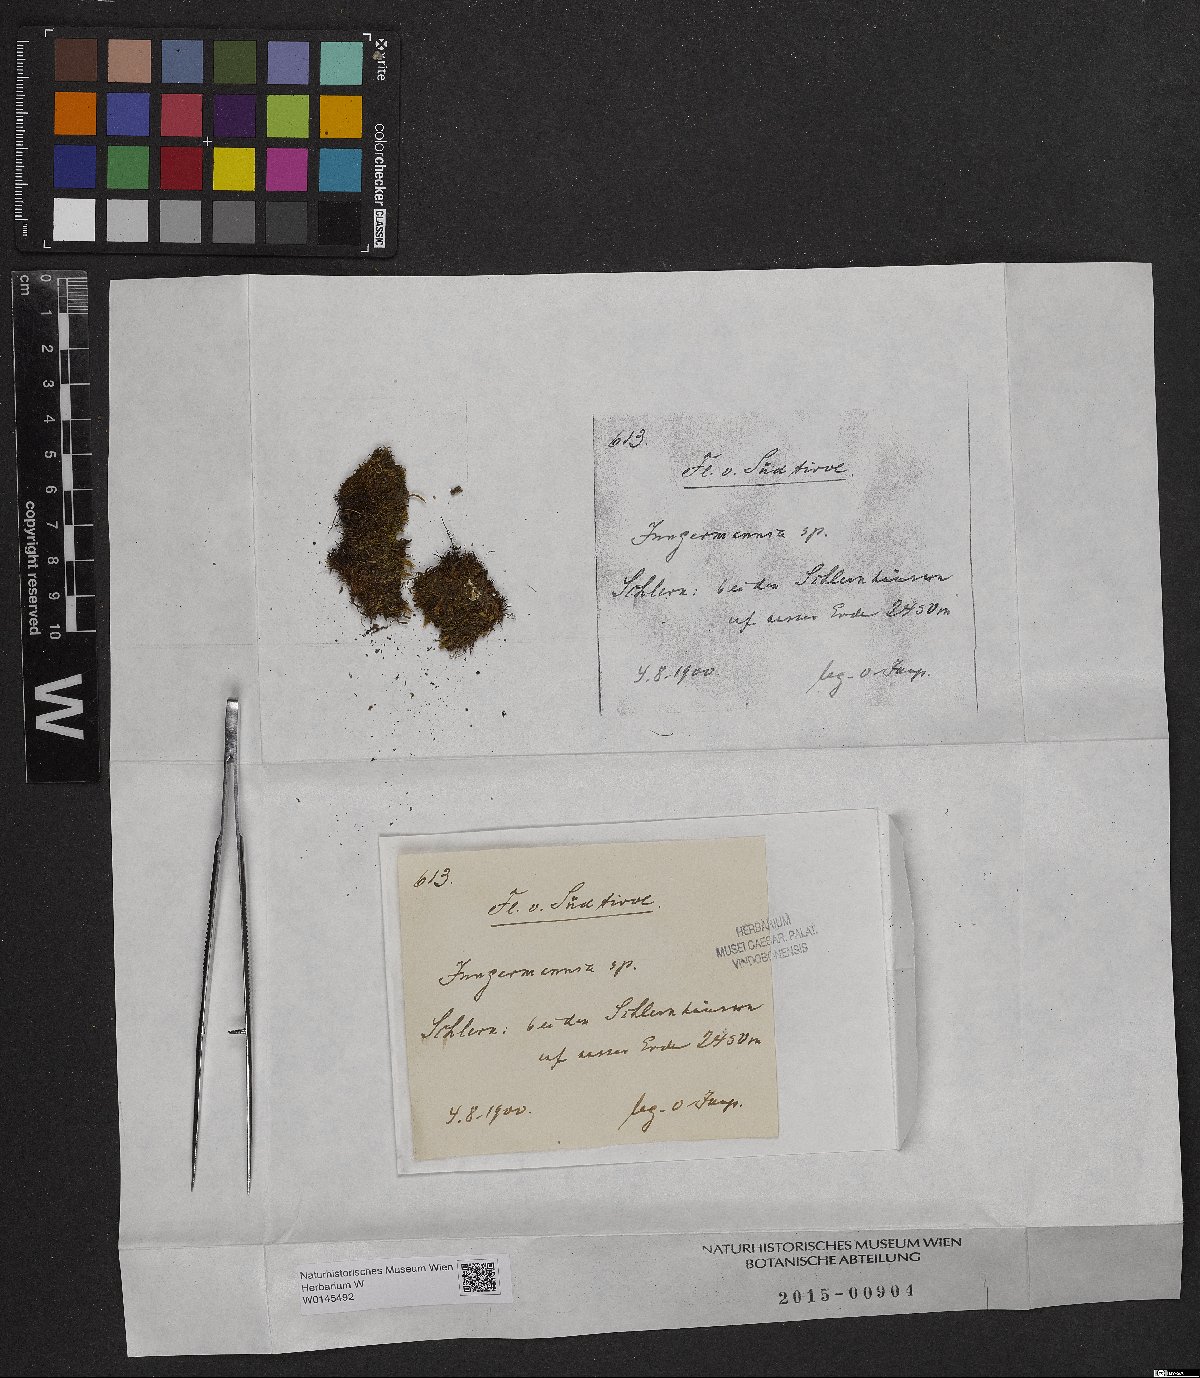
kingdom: Plantae
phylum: Marchantiophyta
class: Jungermanniopsida
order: Jungermanniales
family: Jungermanniaceae
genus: Jungermannia
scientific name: Jungermannia
